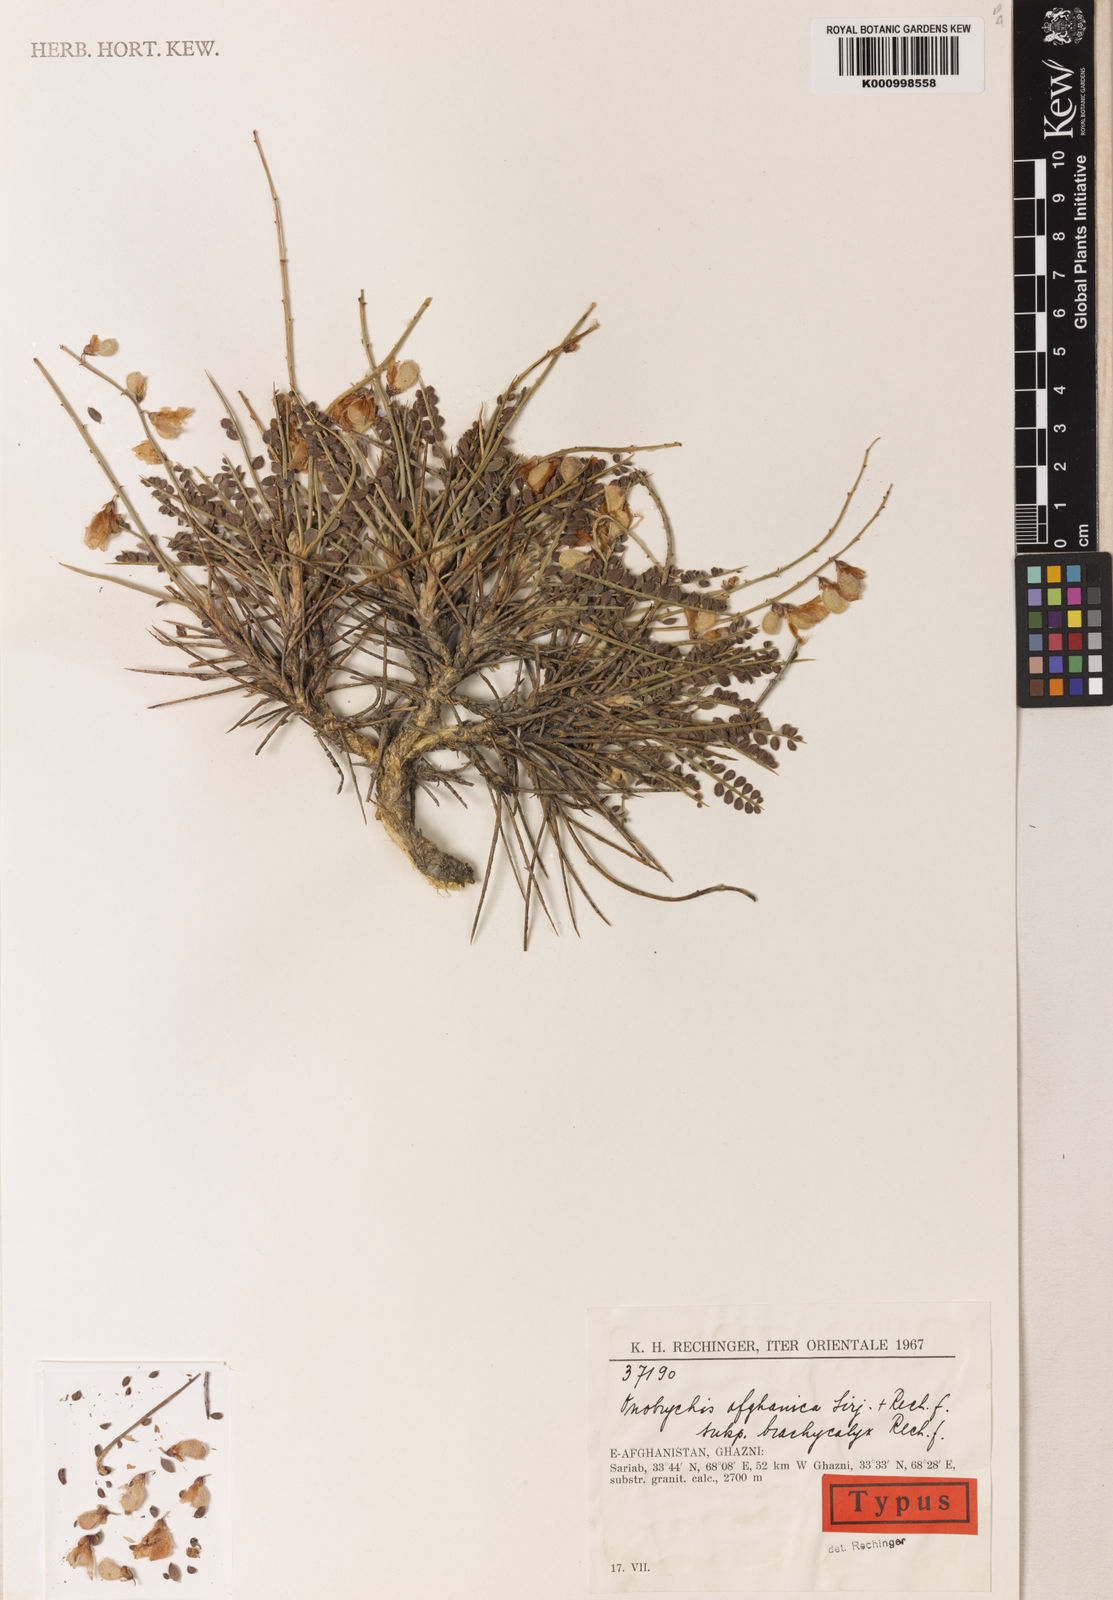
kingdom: Plantae
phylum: Tracheophyta
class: Magnoliopsida
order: Fabales
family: Fabaceae
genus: Onobrychis
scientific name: Onobrychis
